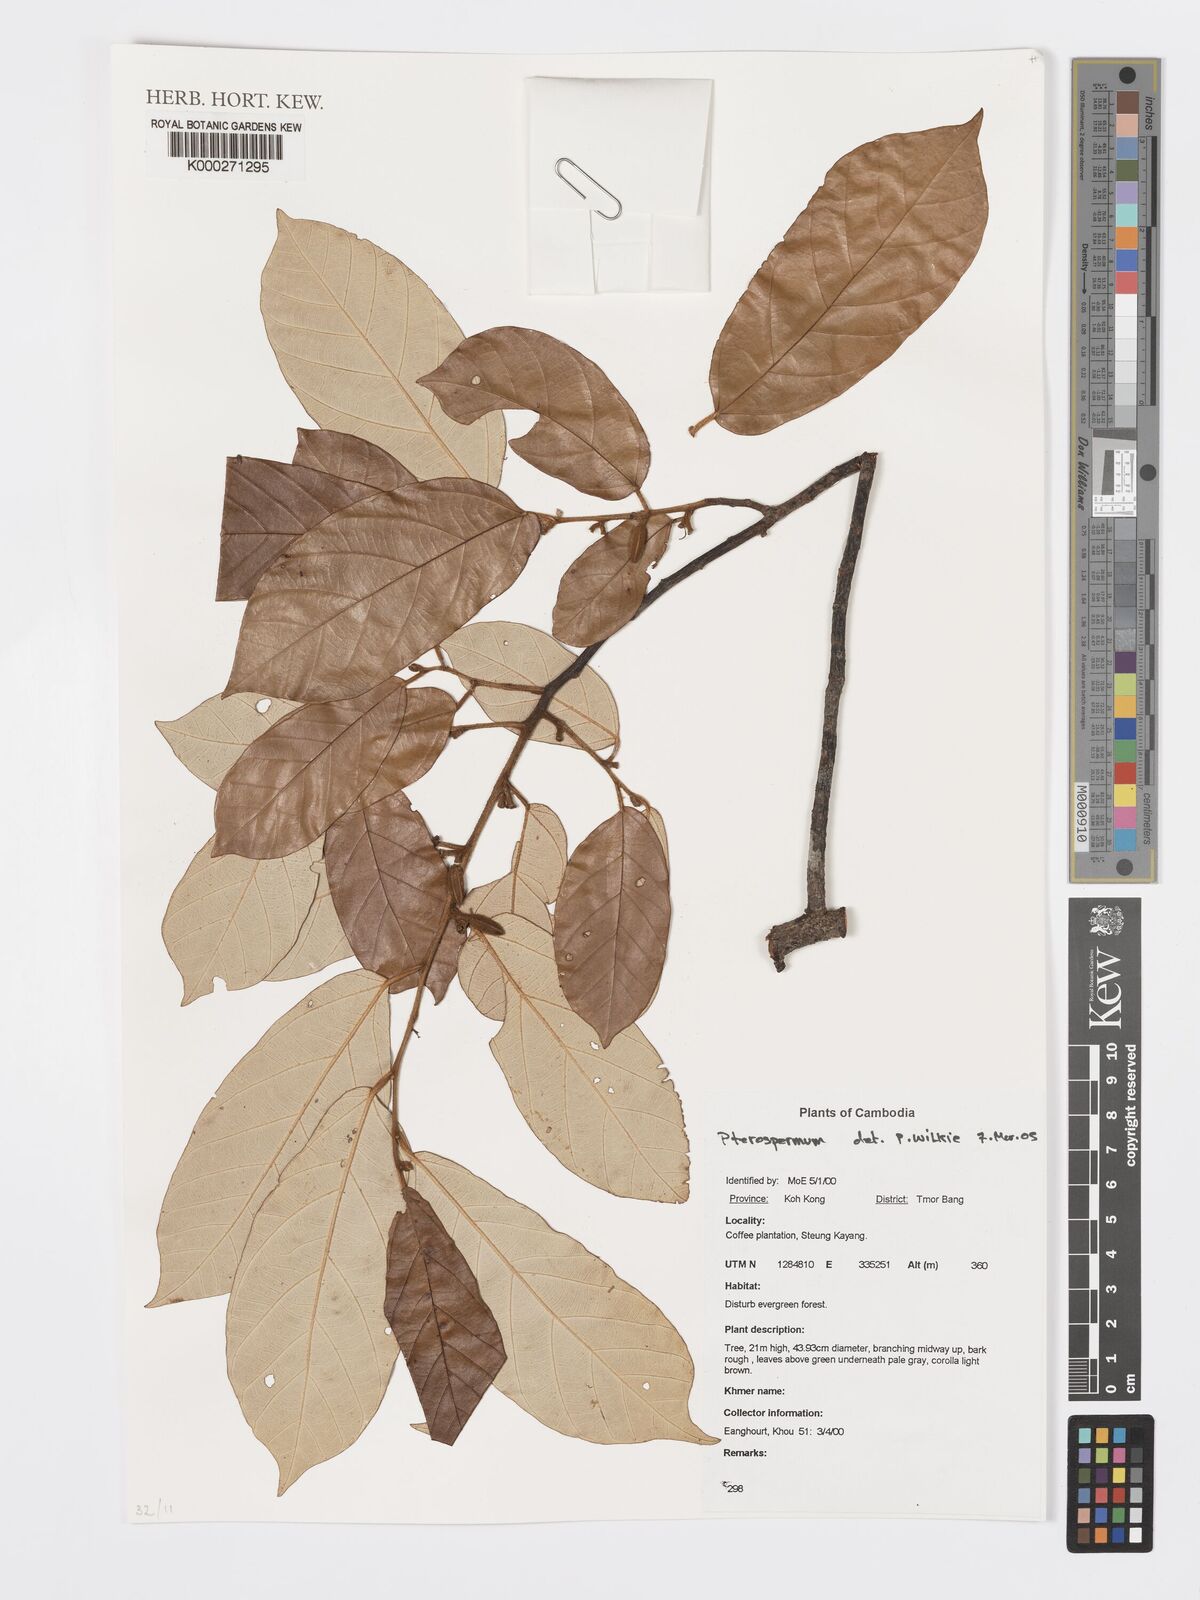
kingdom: Plantae
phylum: Tracheophyta
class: Magnoliopsida
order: Malvales
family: Malvaceae
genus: Pterospermum
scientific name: Pterospermum
